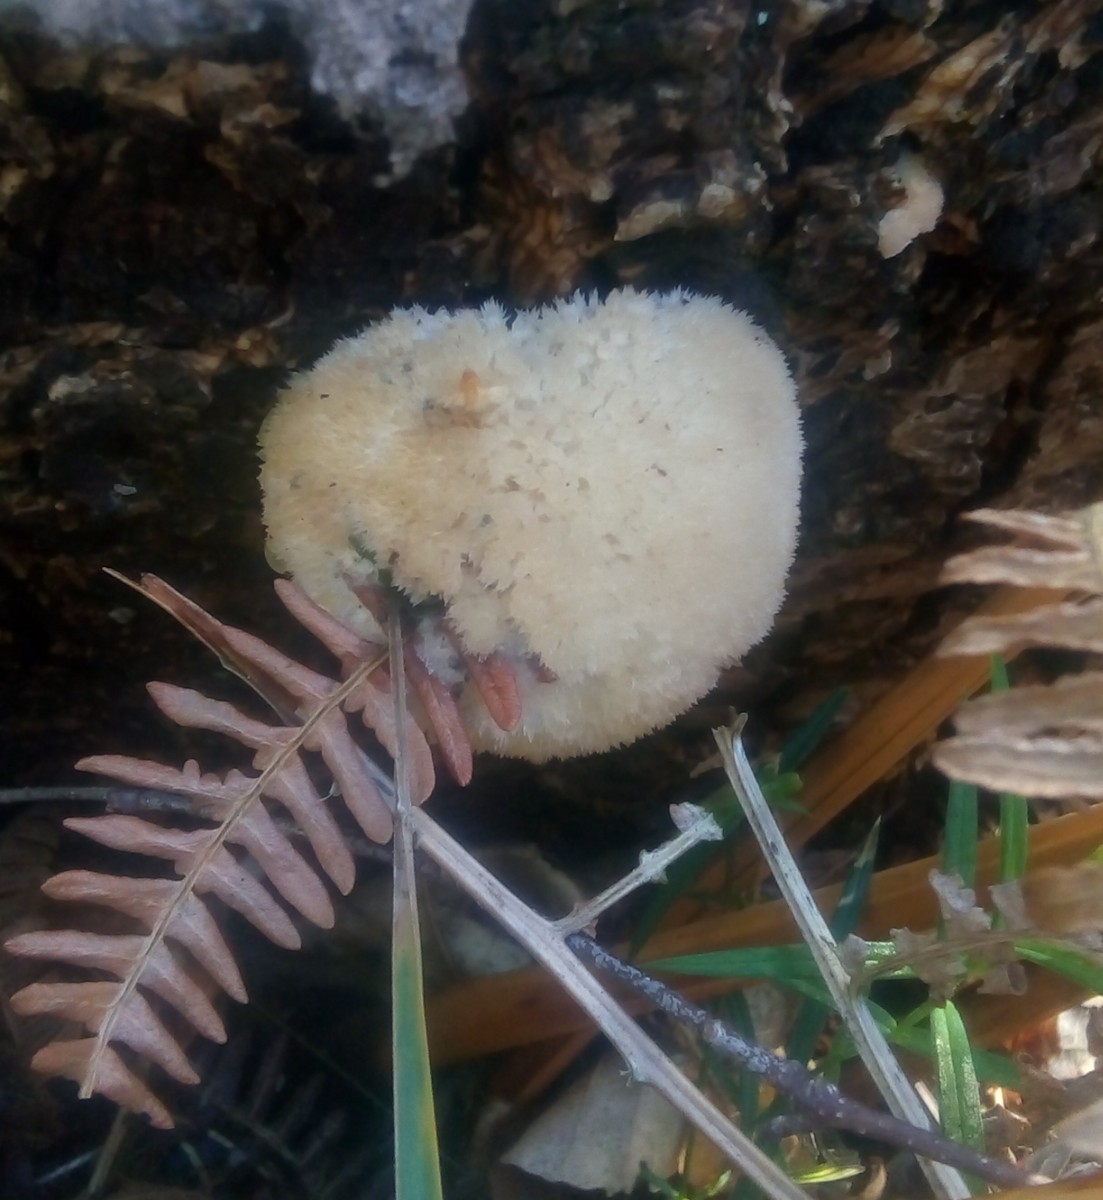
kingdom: Fungi
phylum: Basidiomycota
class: Agaricomycetes
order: Polyporales
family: Dacryobolaceae
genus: Postia
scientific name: Postia ptychogaster
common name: støvende kødporesvamp
